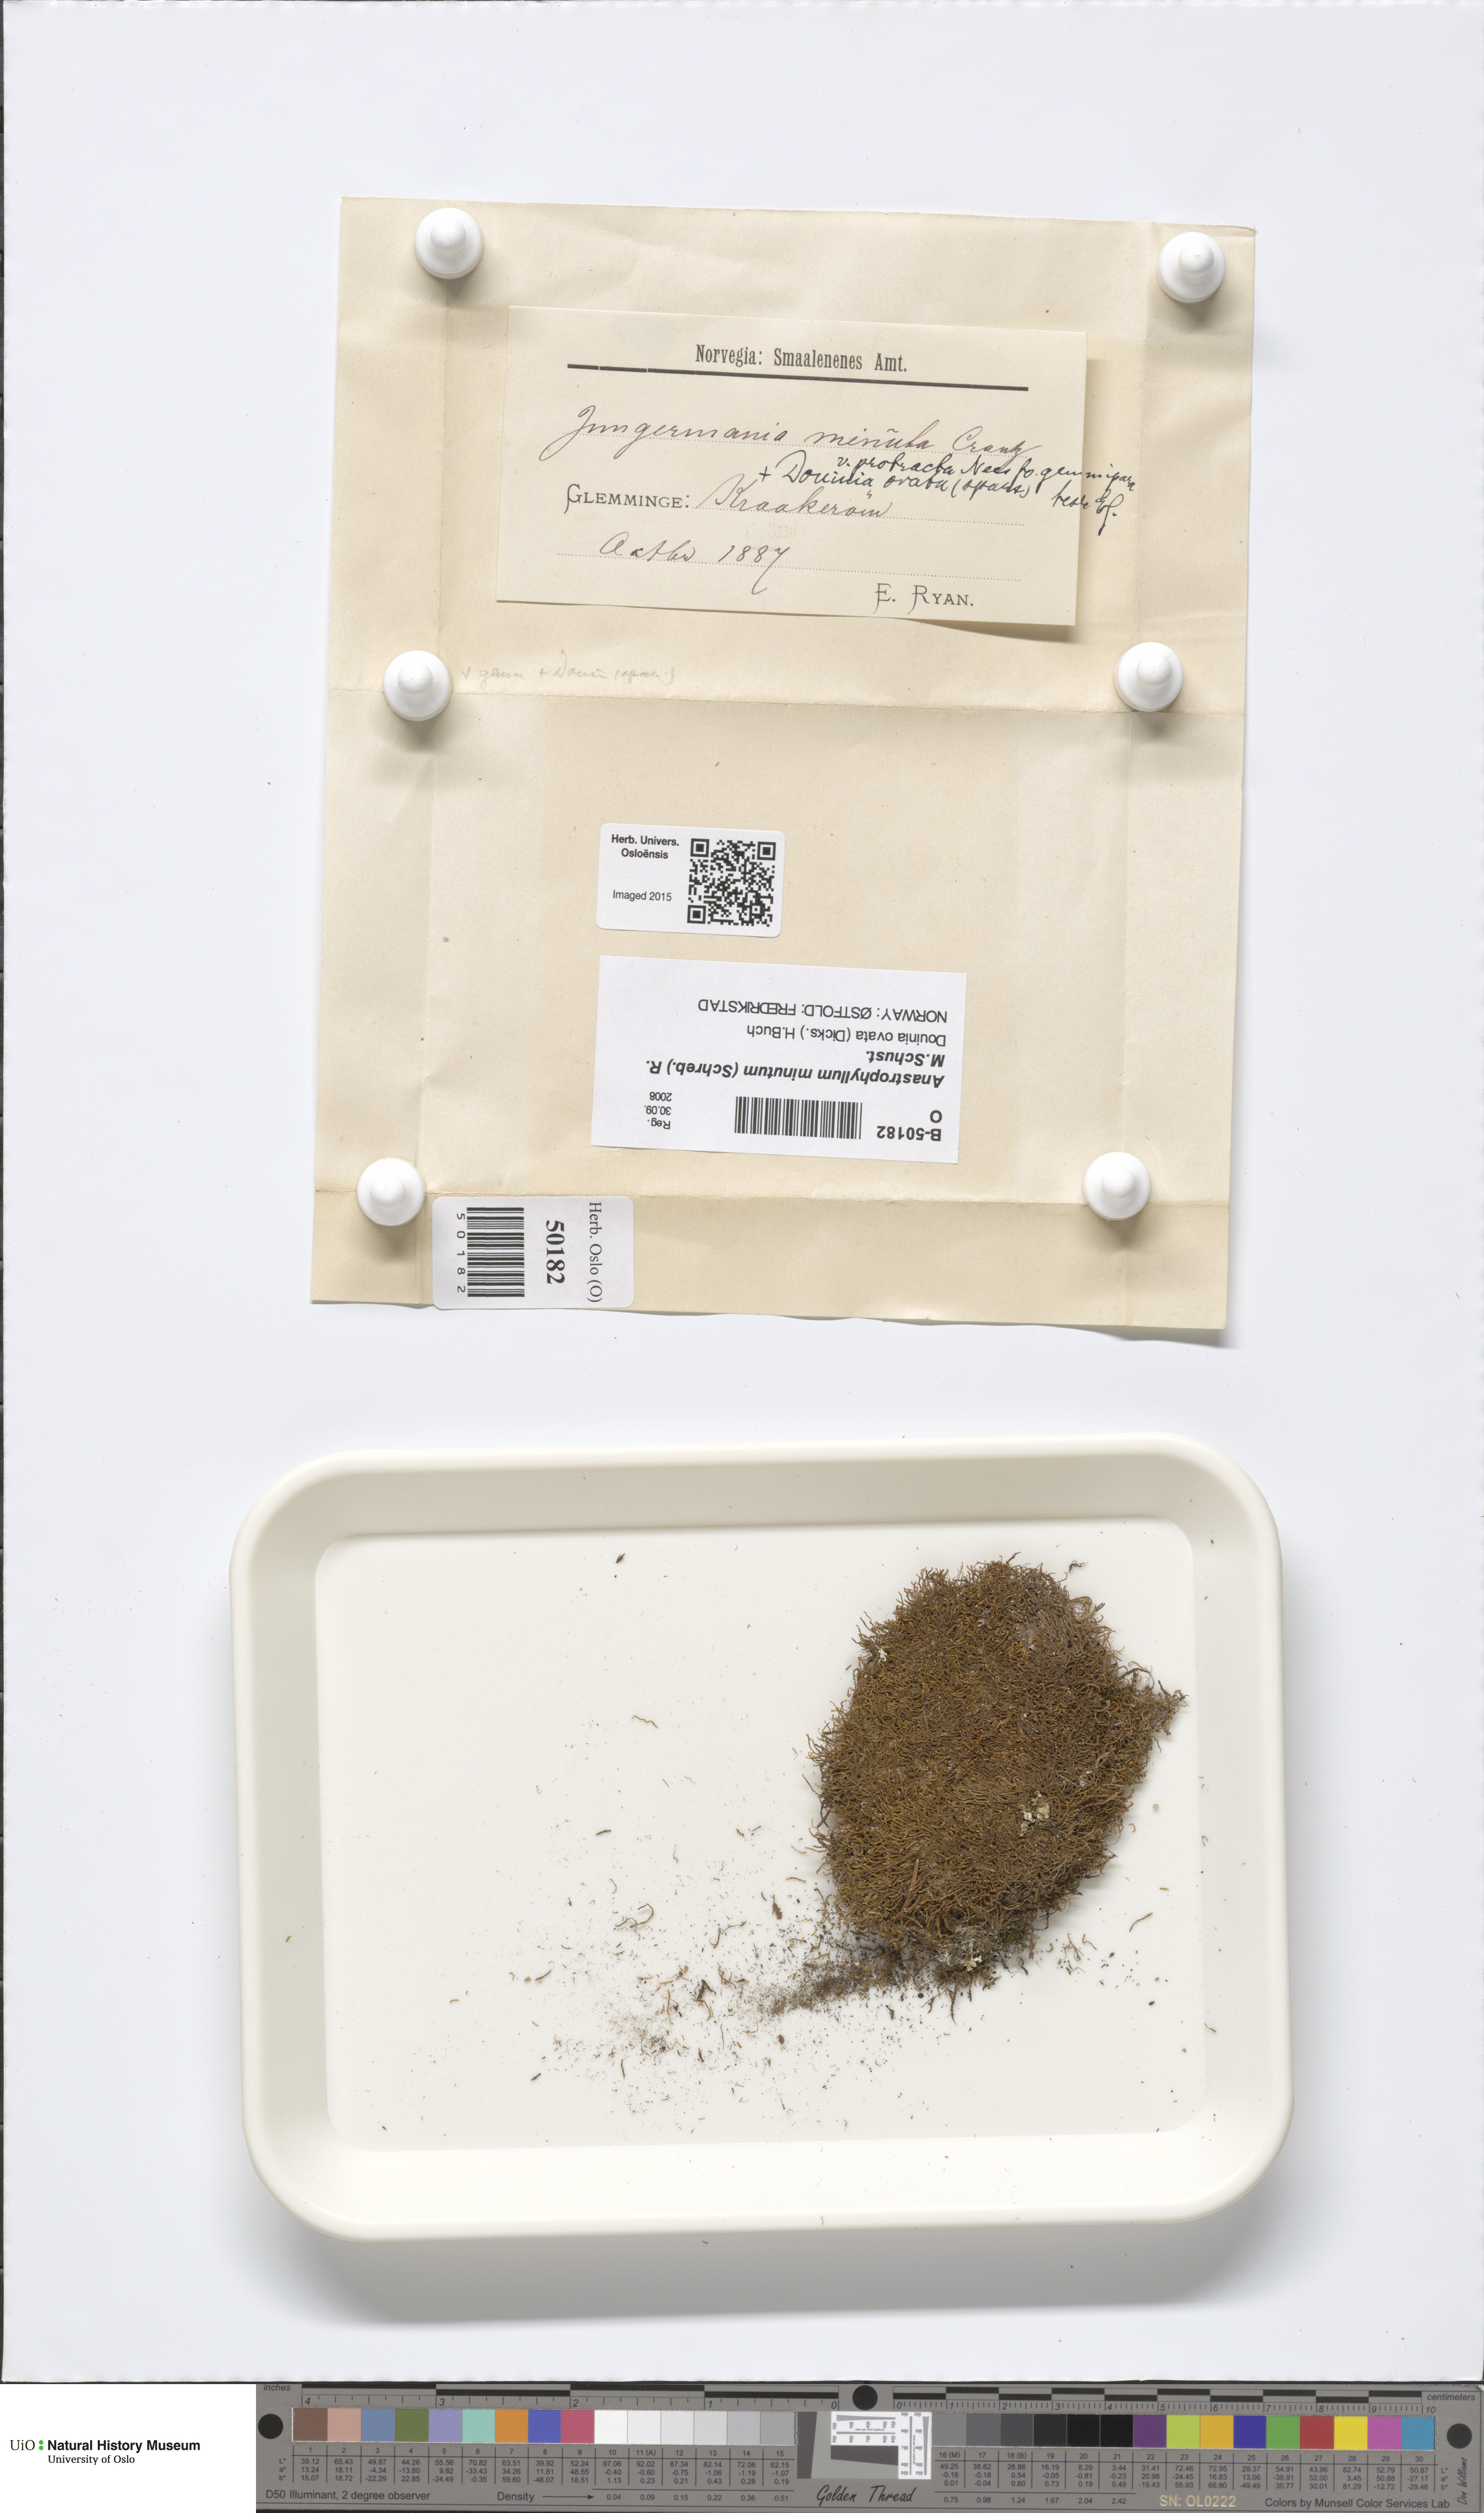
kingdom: Plantae
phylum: Marchantiophyta
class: Jungermanniopsida
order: Jungermanniales
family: Anastrophyllaceae
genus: Sphenolobus
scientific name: Sphenolobus minutus
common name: Comb notchwort
